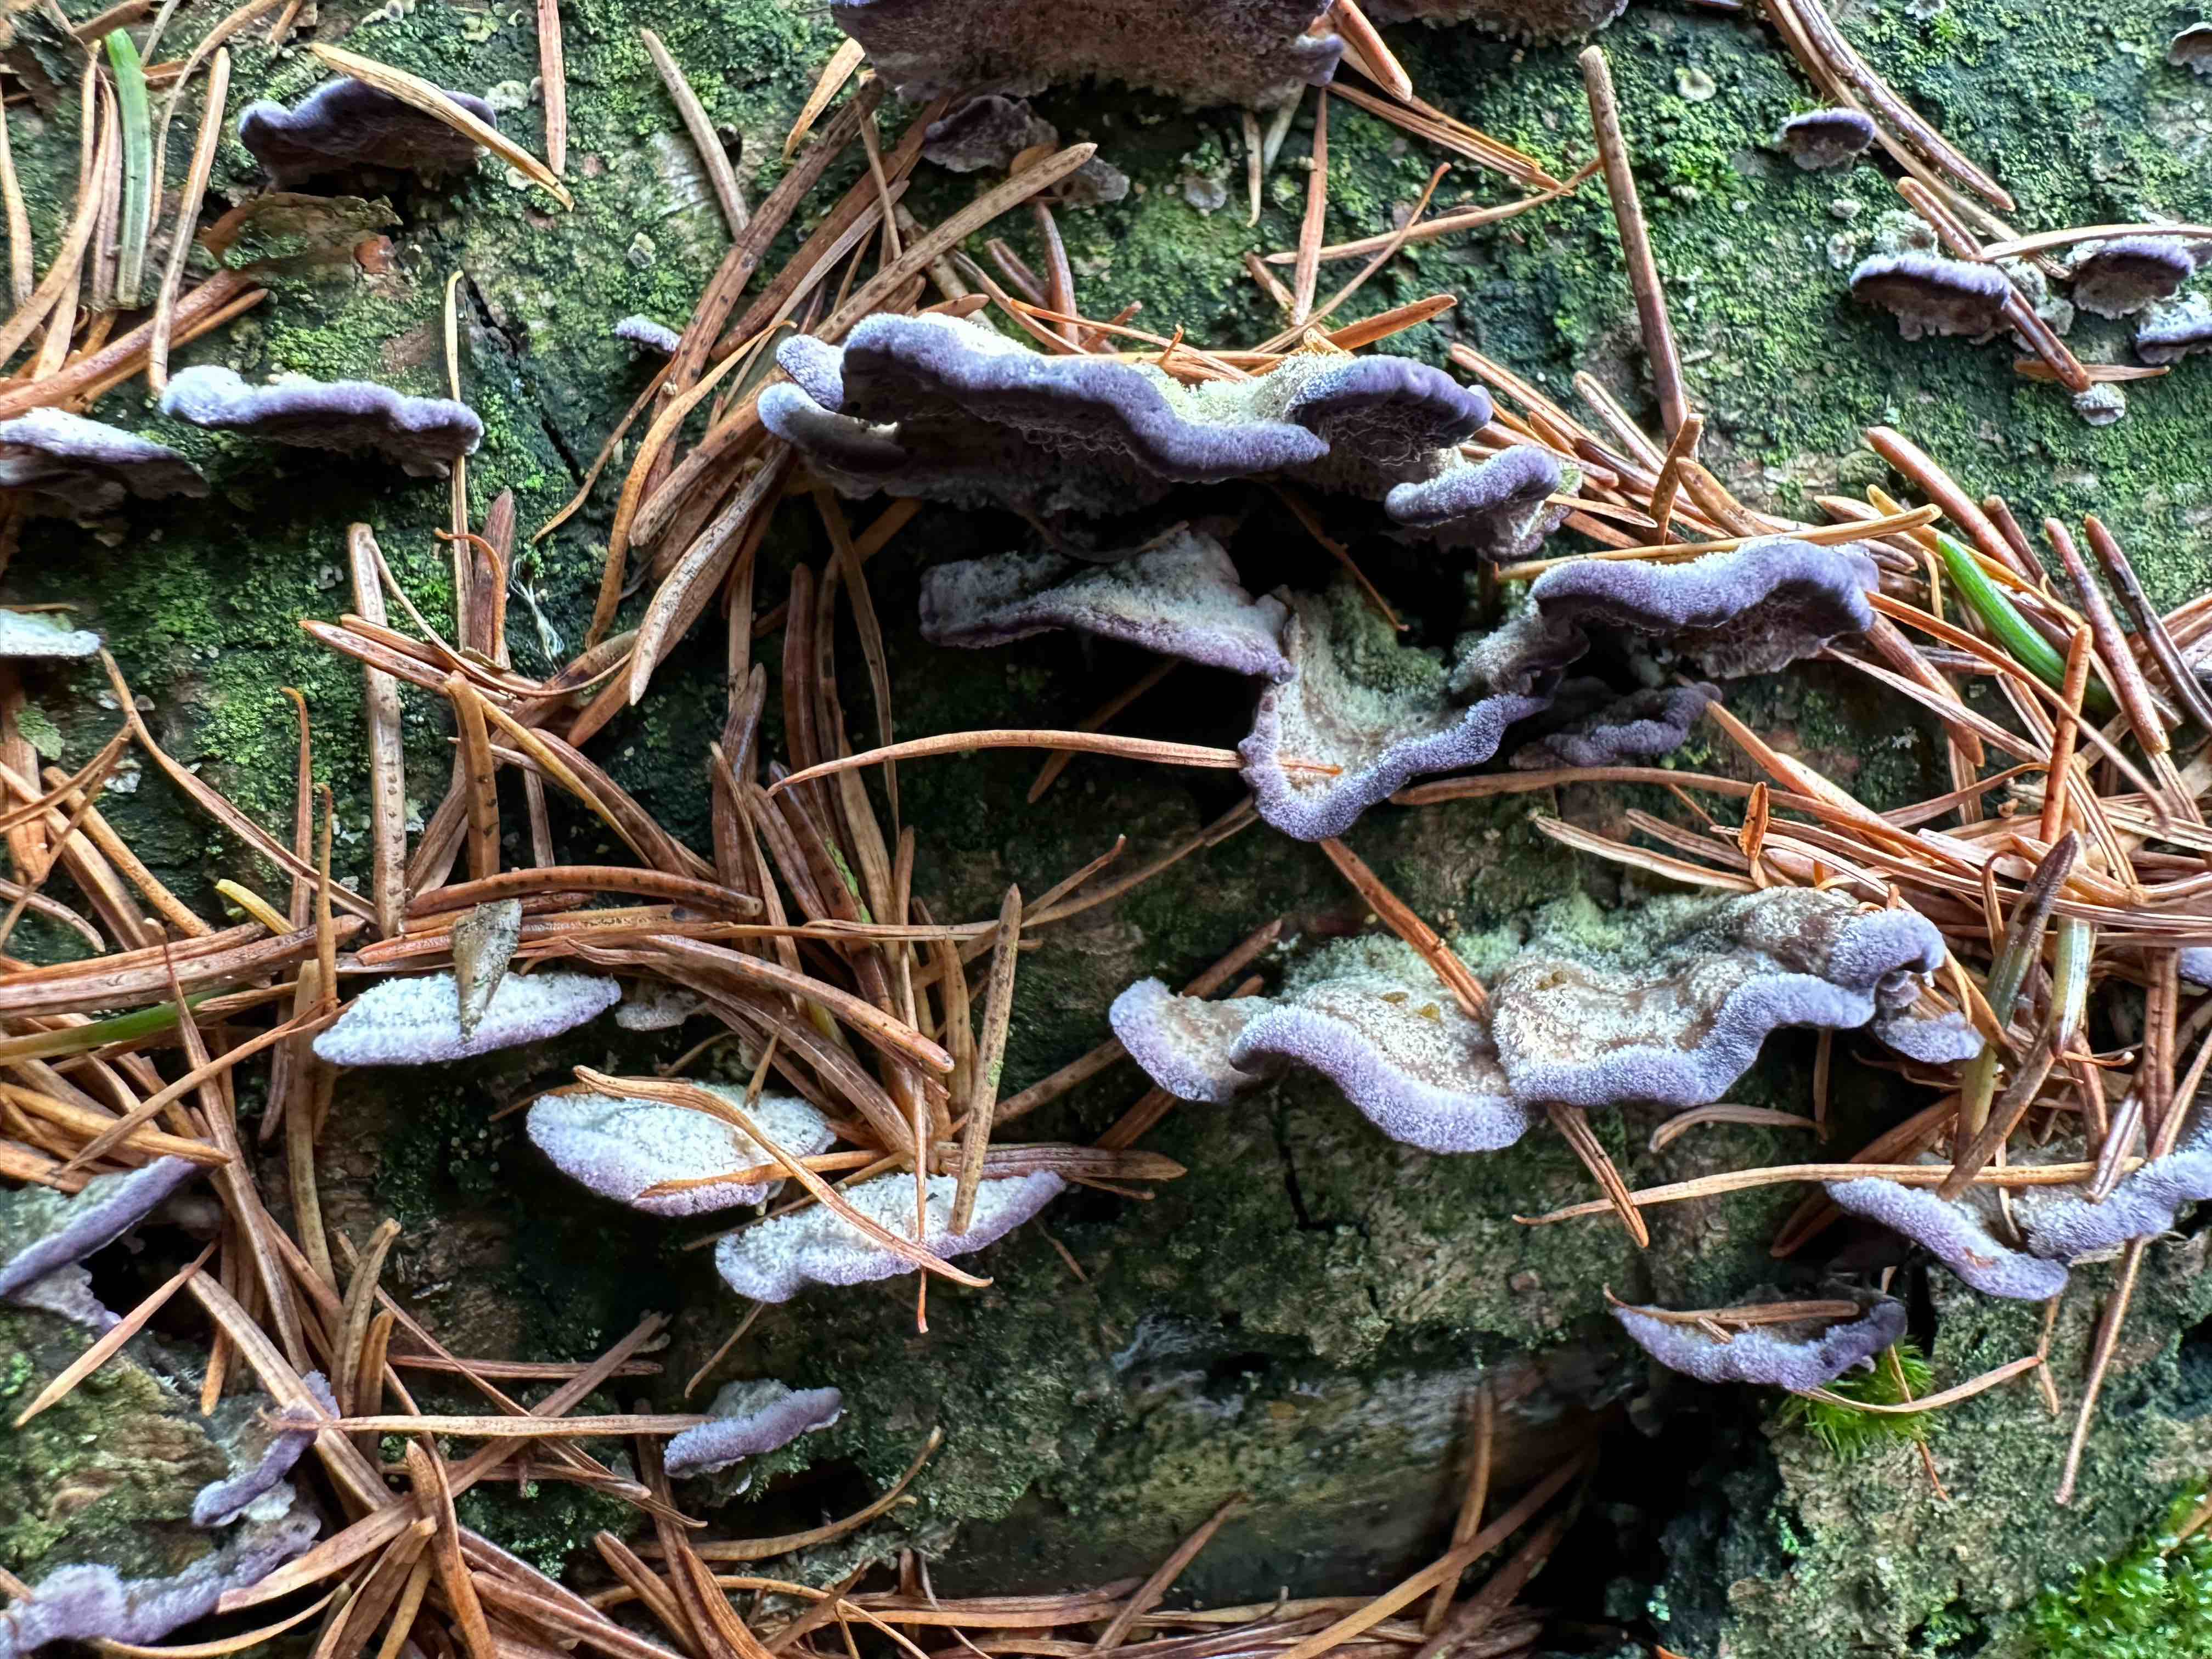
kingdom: Fungi
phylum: Basidiomycota
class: Agaricomycetes
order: Hymenochaetales
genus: Trichaptum
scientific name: Trichaptum abietinum
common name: almindelig violporesvamp
